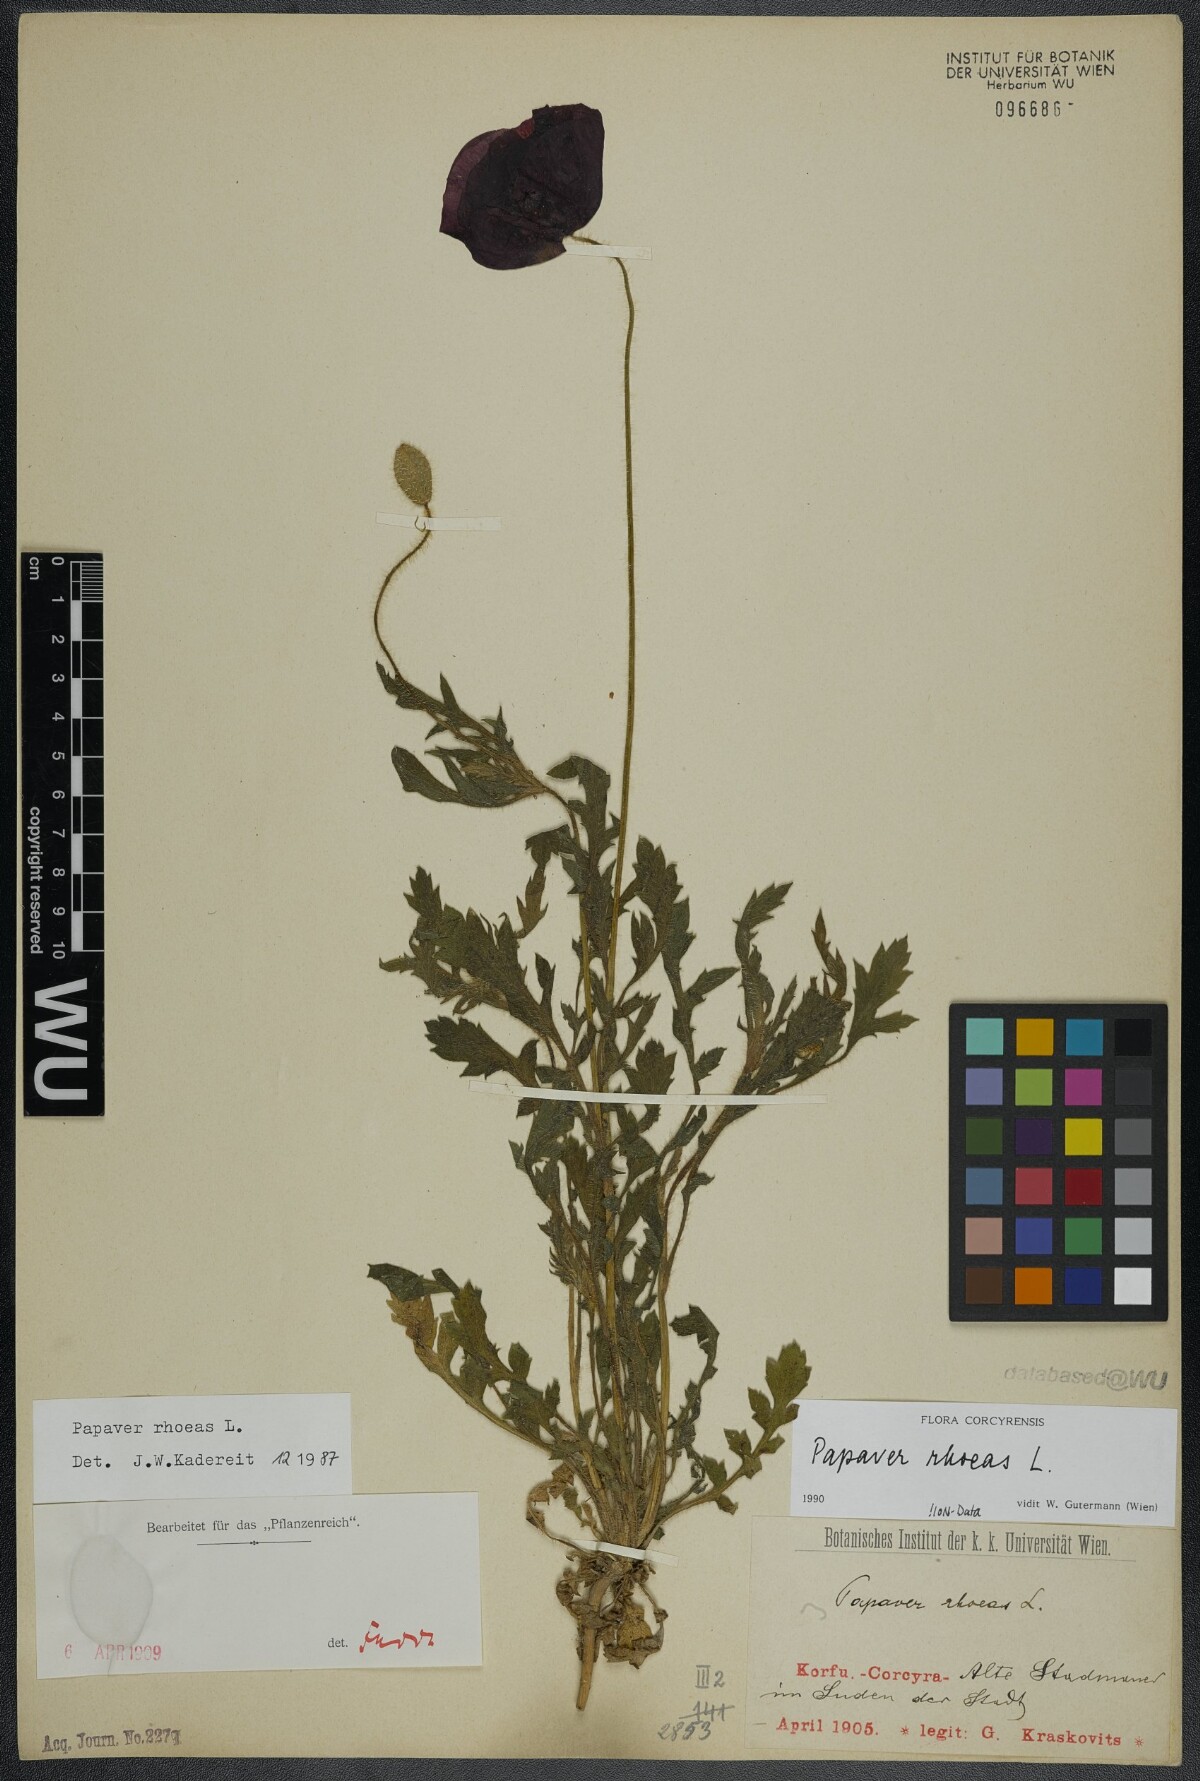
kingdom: Plantae
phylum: Tracheophyta
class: Magnoliopsida
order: Ranunculales
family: Papaveraceae
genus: Papaver
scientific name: Papaver rhoeas
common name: Corn poppy
